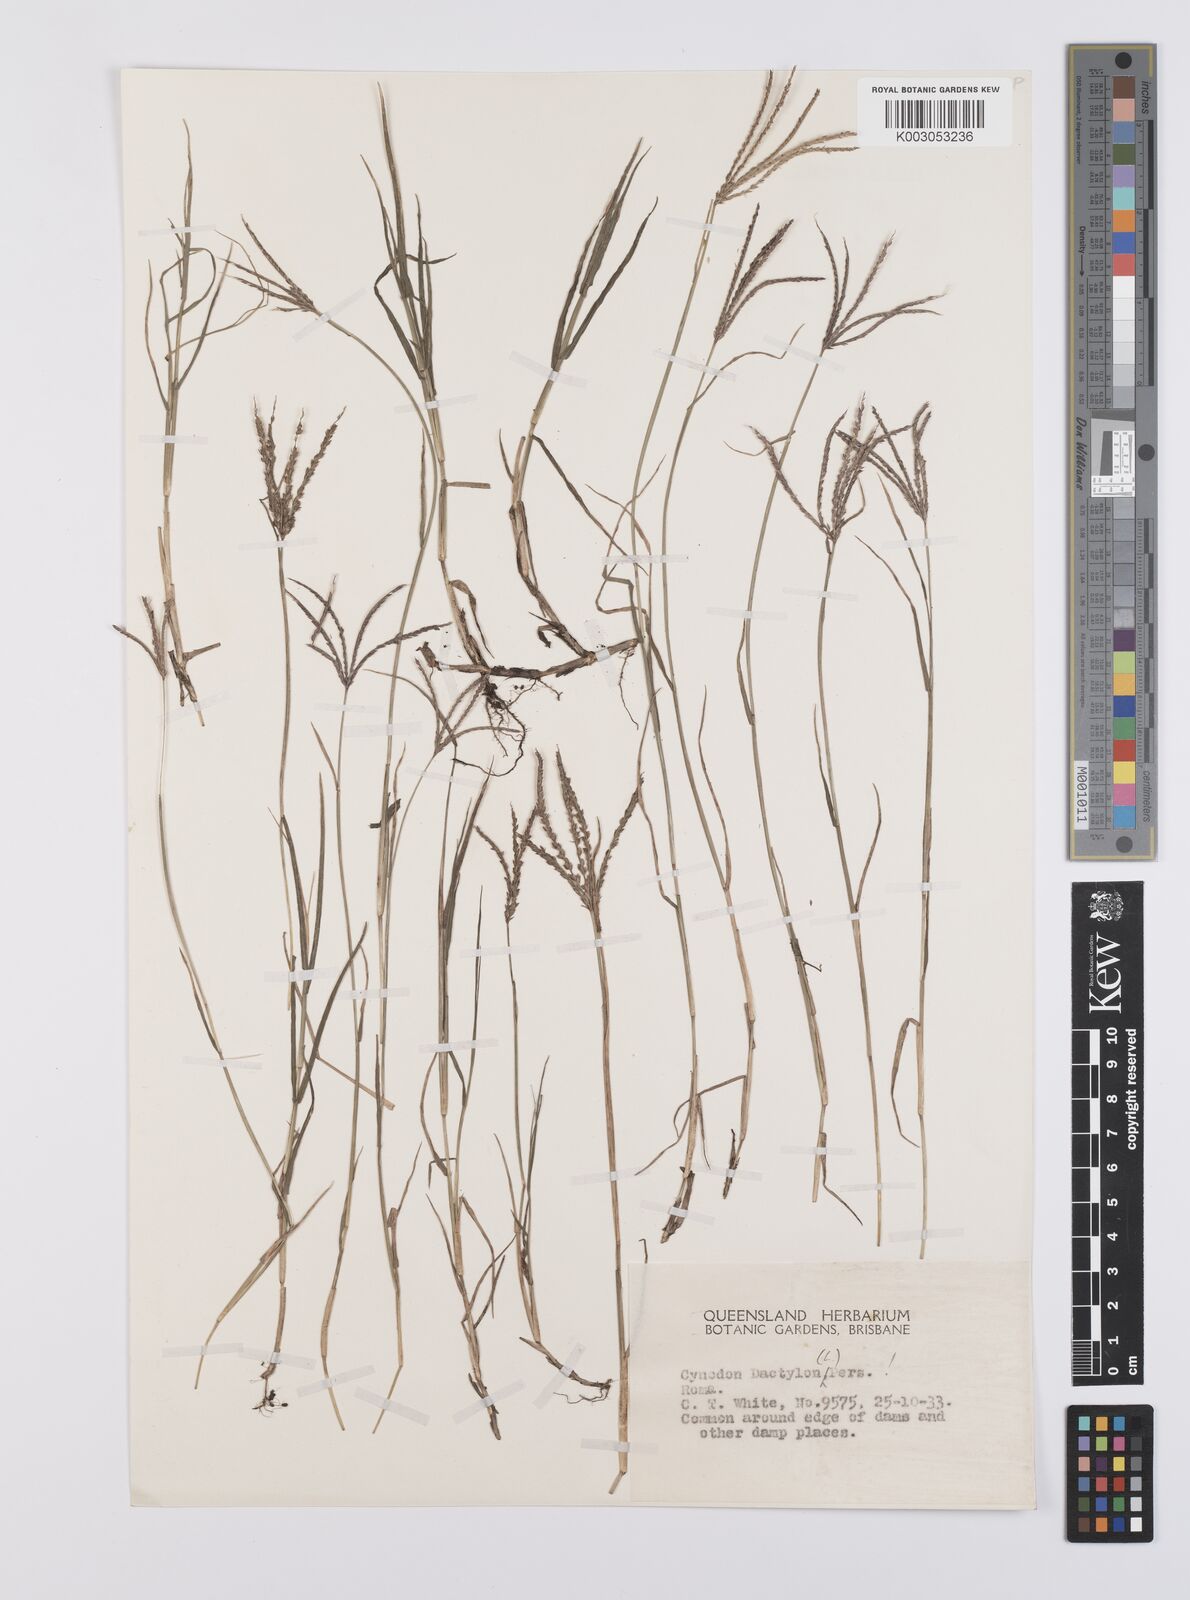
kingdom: Plantae
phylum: Tracheophyta
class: Liliopsida
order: Poales
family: Poaceae
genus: Cynodon
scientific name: Cynodon dactylon
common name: Bermuda grass
